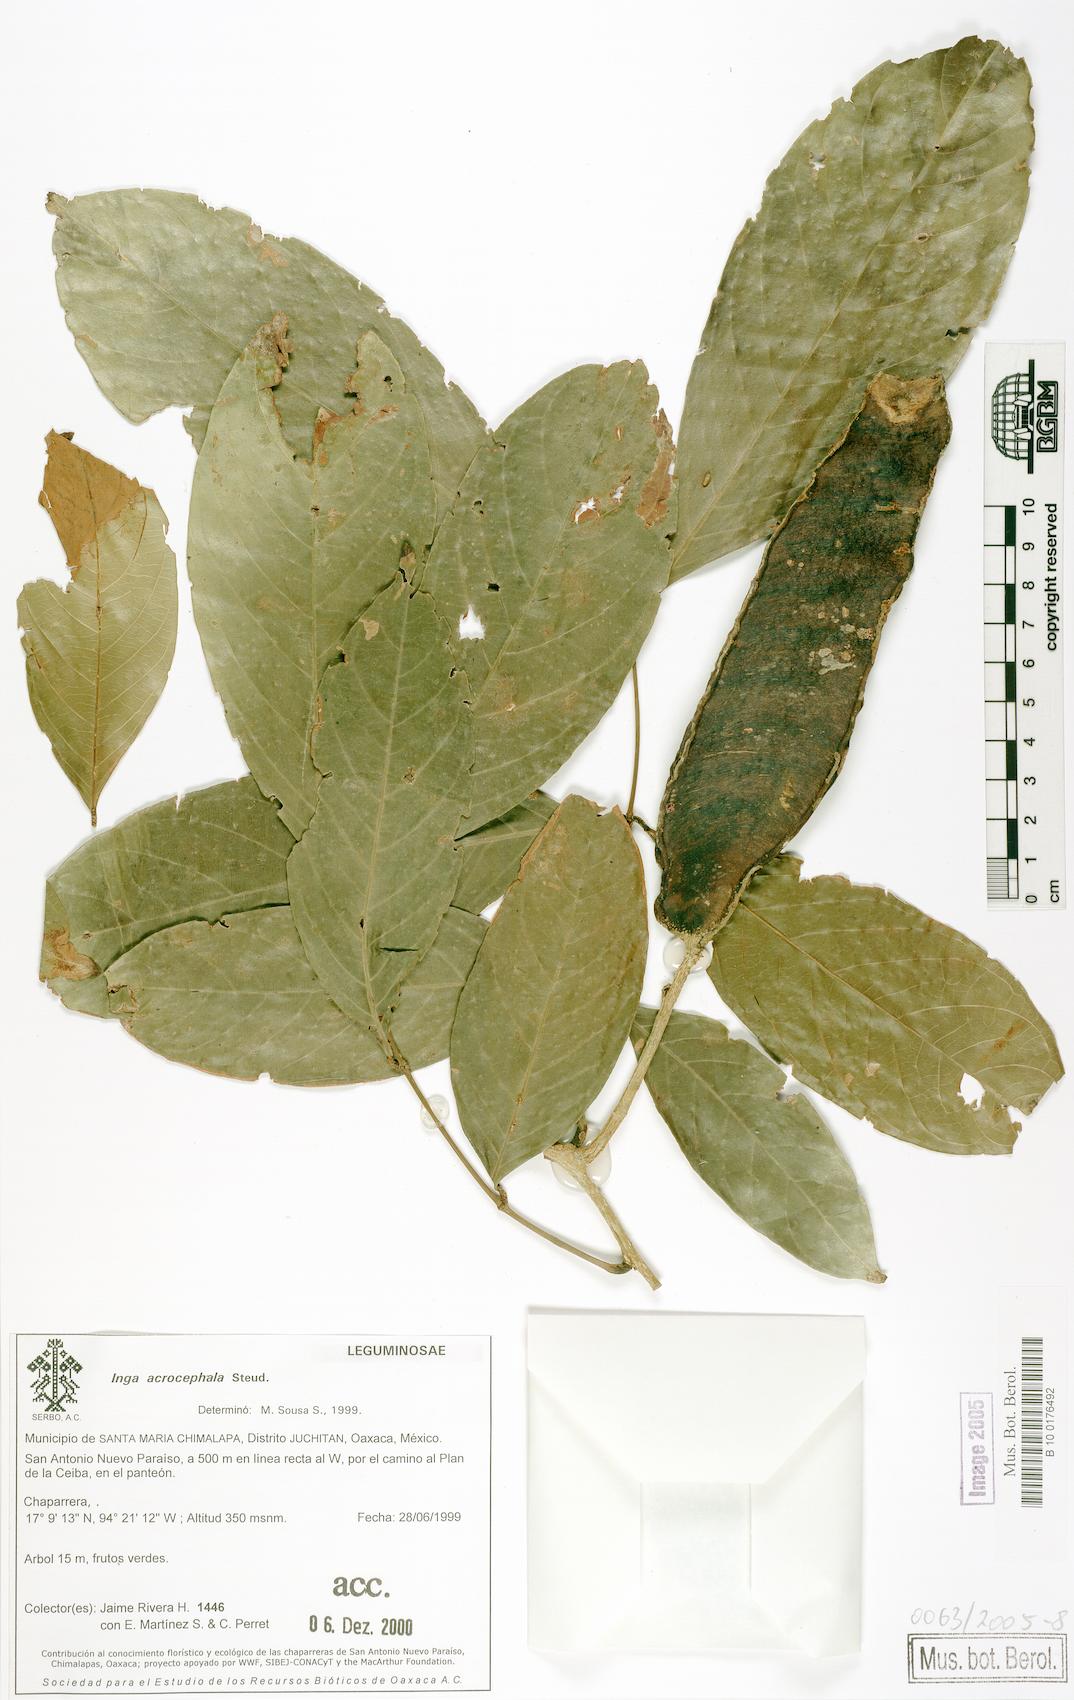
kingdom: Plantae
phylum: Tracheophyta
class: Magnoliopsida
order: Fabales
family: Fabaceae
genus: Inga
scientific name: Inga
